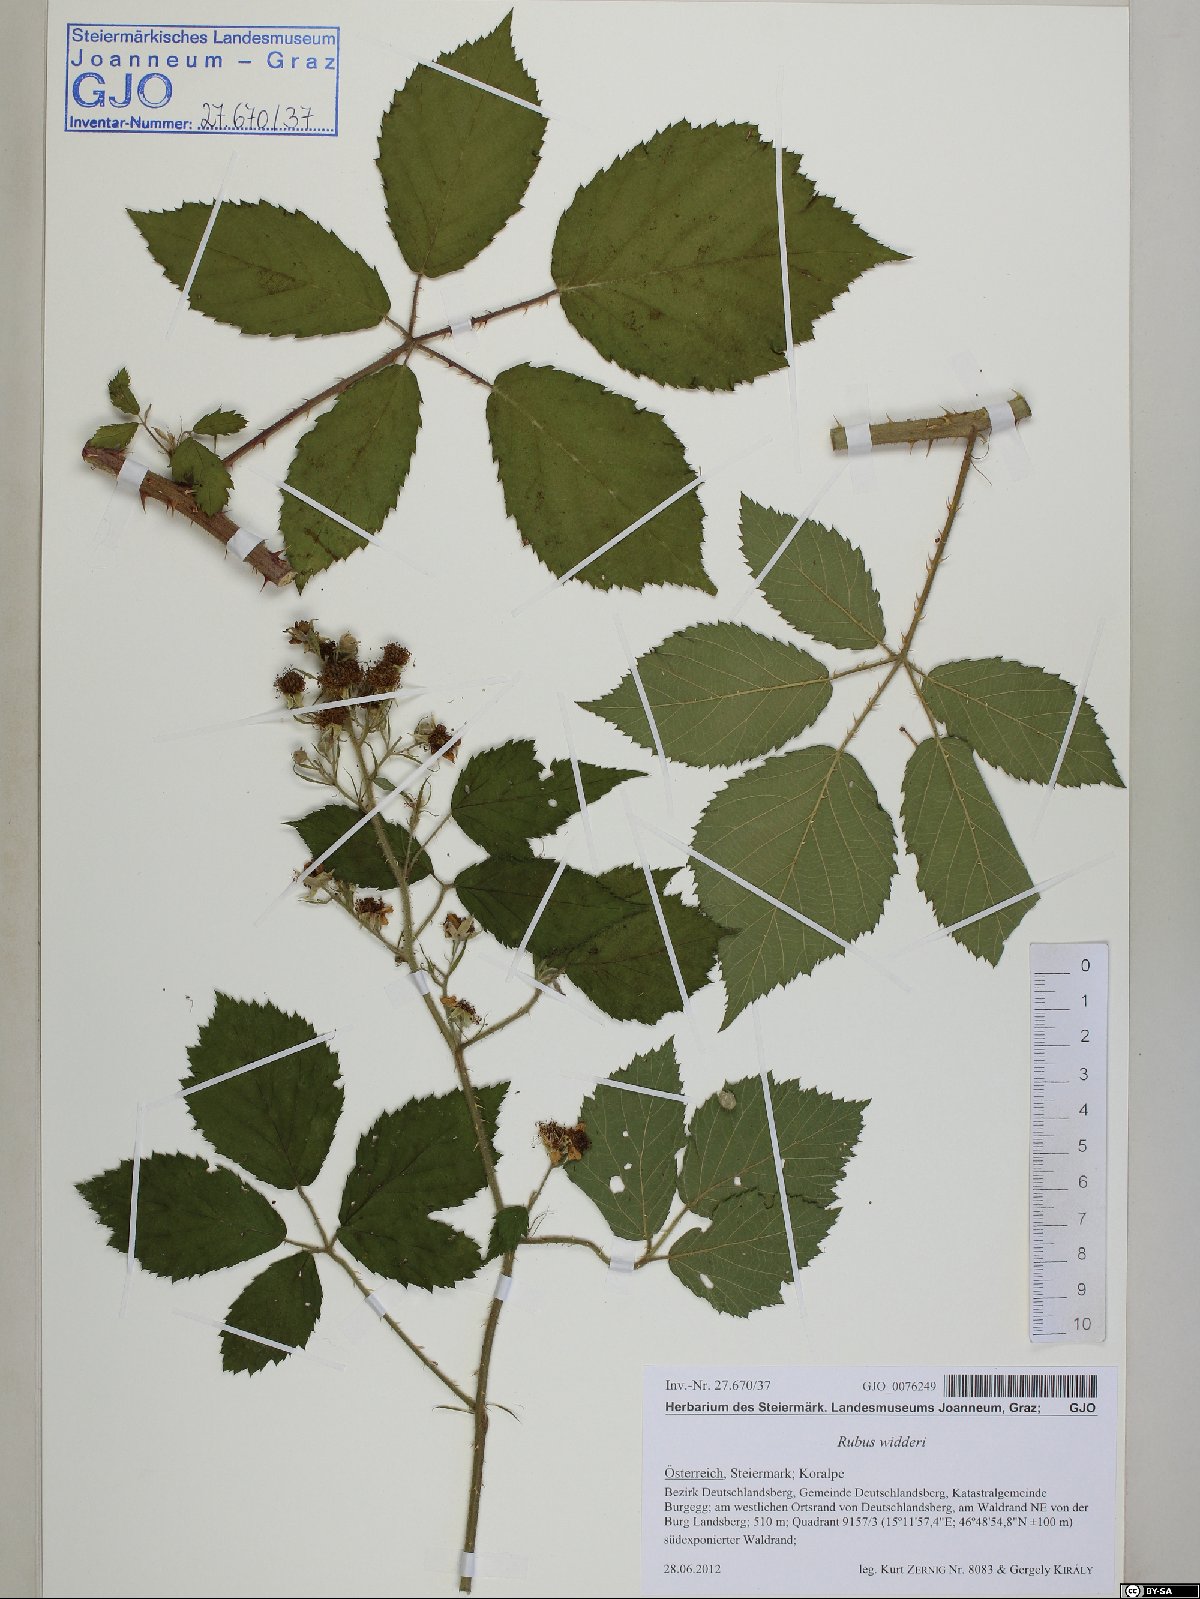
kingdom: Plantae
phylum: Tracheophyta
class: Magnoliopsida
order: Rosales
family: Rosaceae
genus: Rubus
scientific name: Rubus widderi
